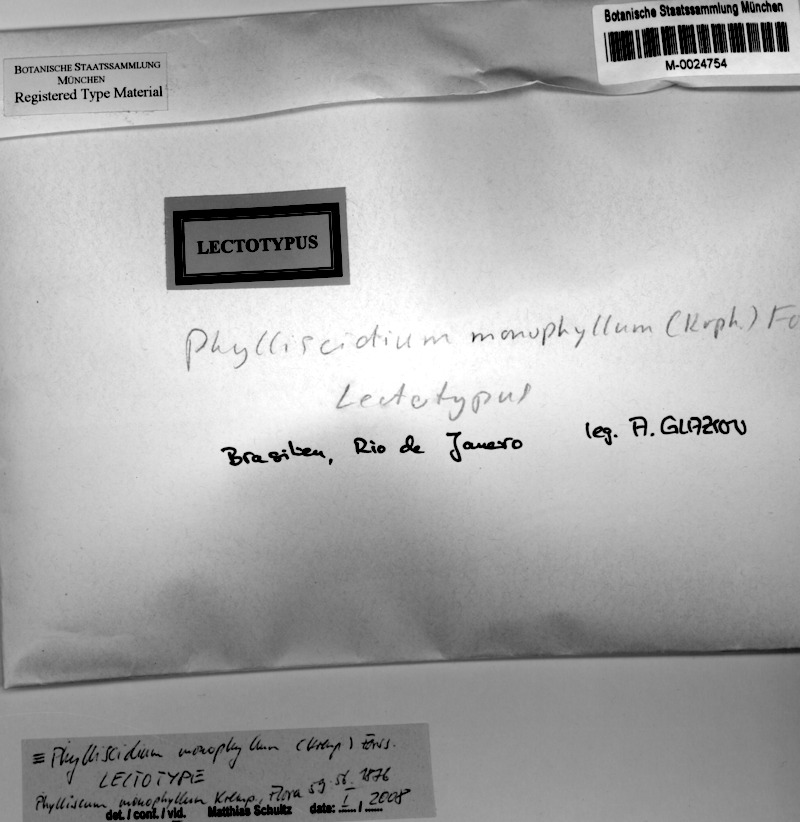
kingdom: Fungi
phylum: Ascomycota
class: Lichinomycetes
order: Lichinales
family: Lichinaceae
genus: Phylliscidium
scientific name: Phylliscidium monophyllum
